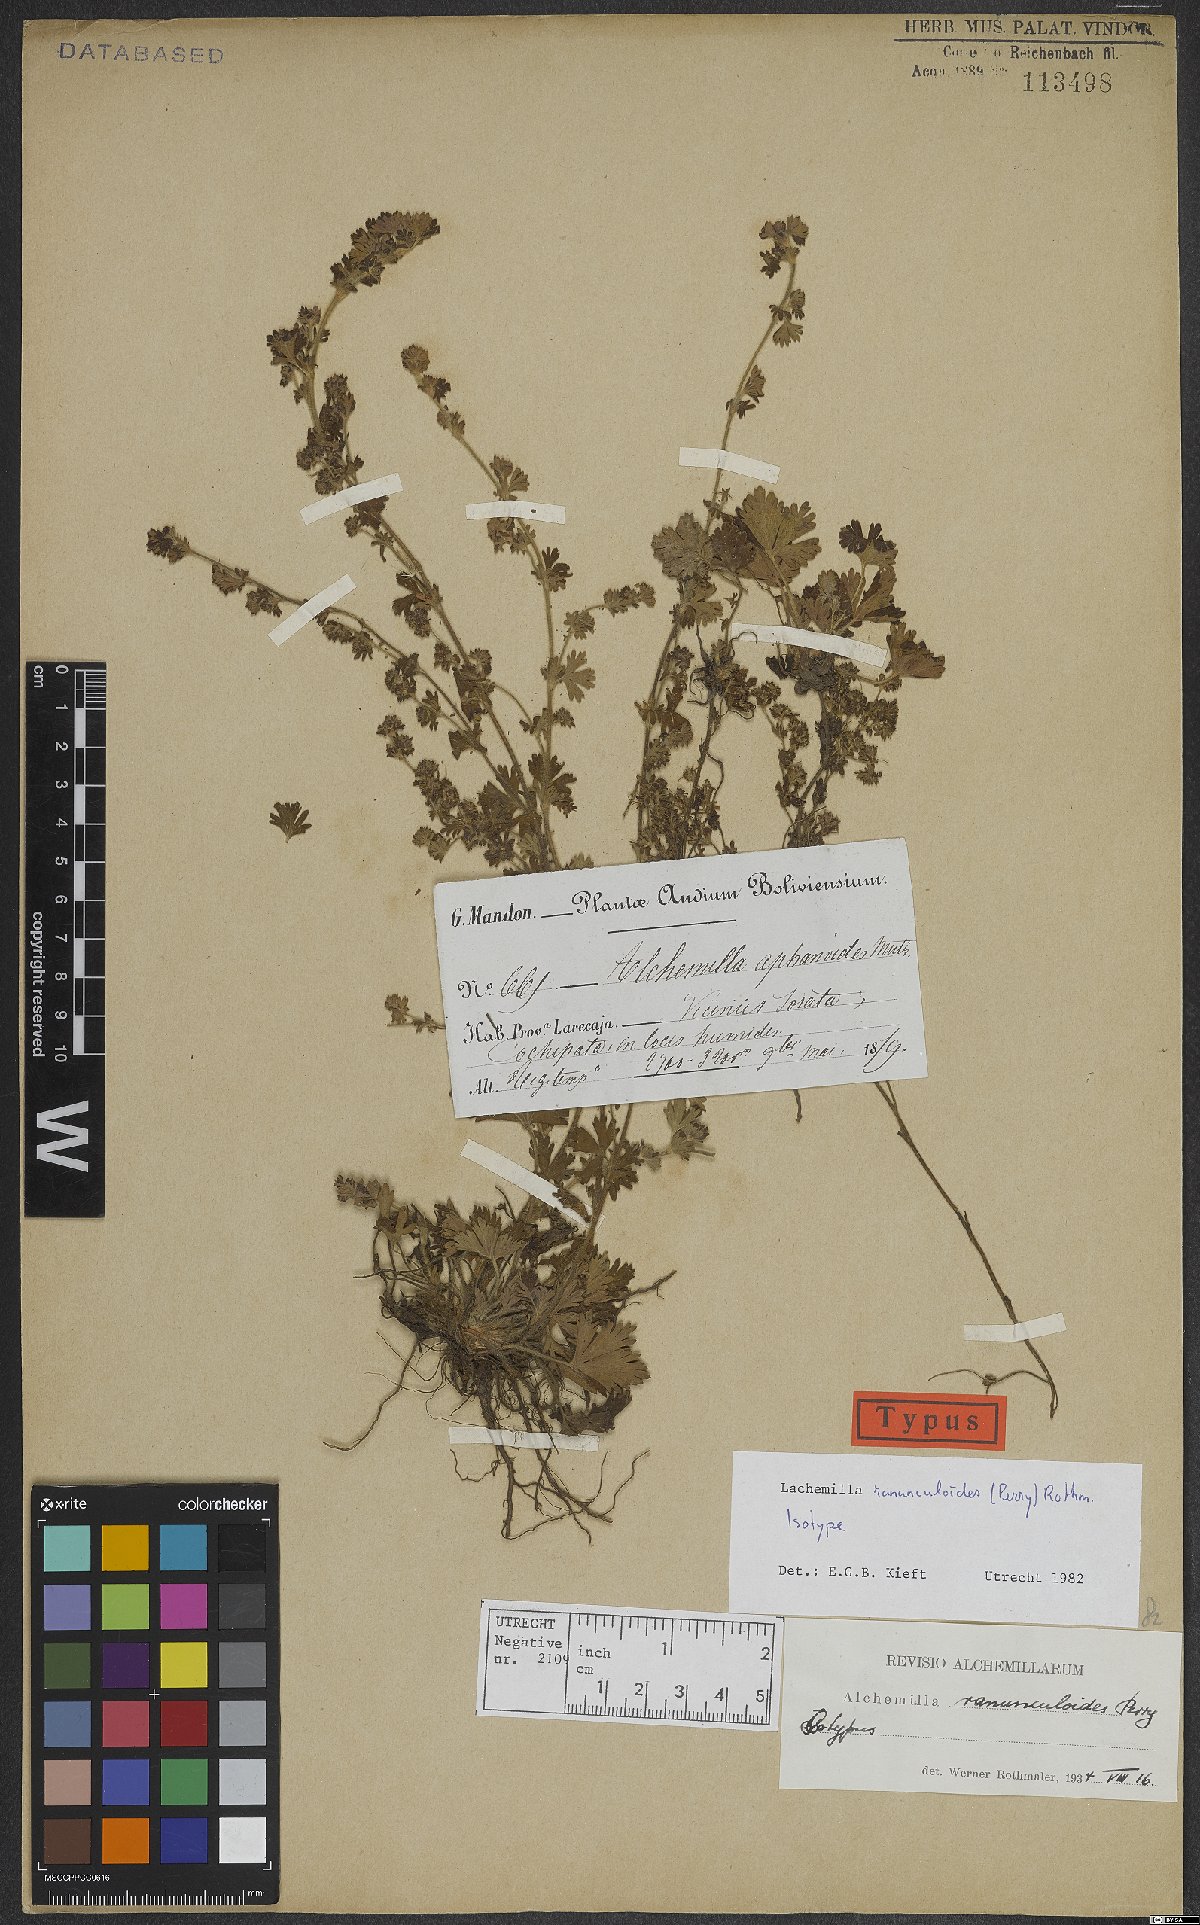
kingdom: Plantae
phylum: Tracheophyta
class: Magnoliopsida
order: Rosales
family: Rosaceae
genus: Lachemilla
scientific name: Lachemilla ranunculoides
